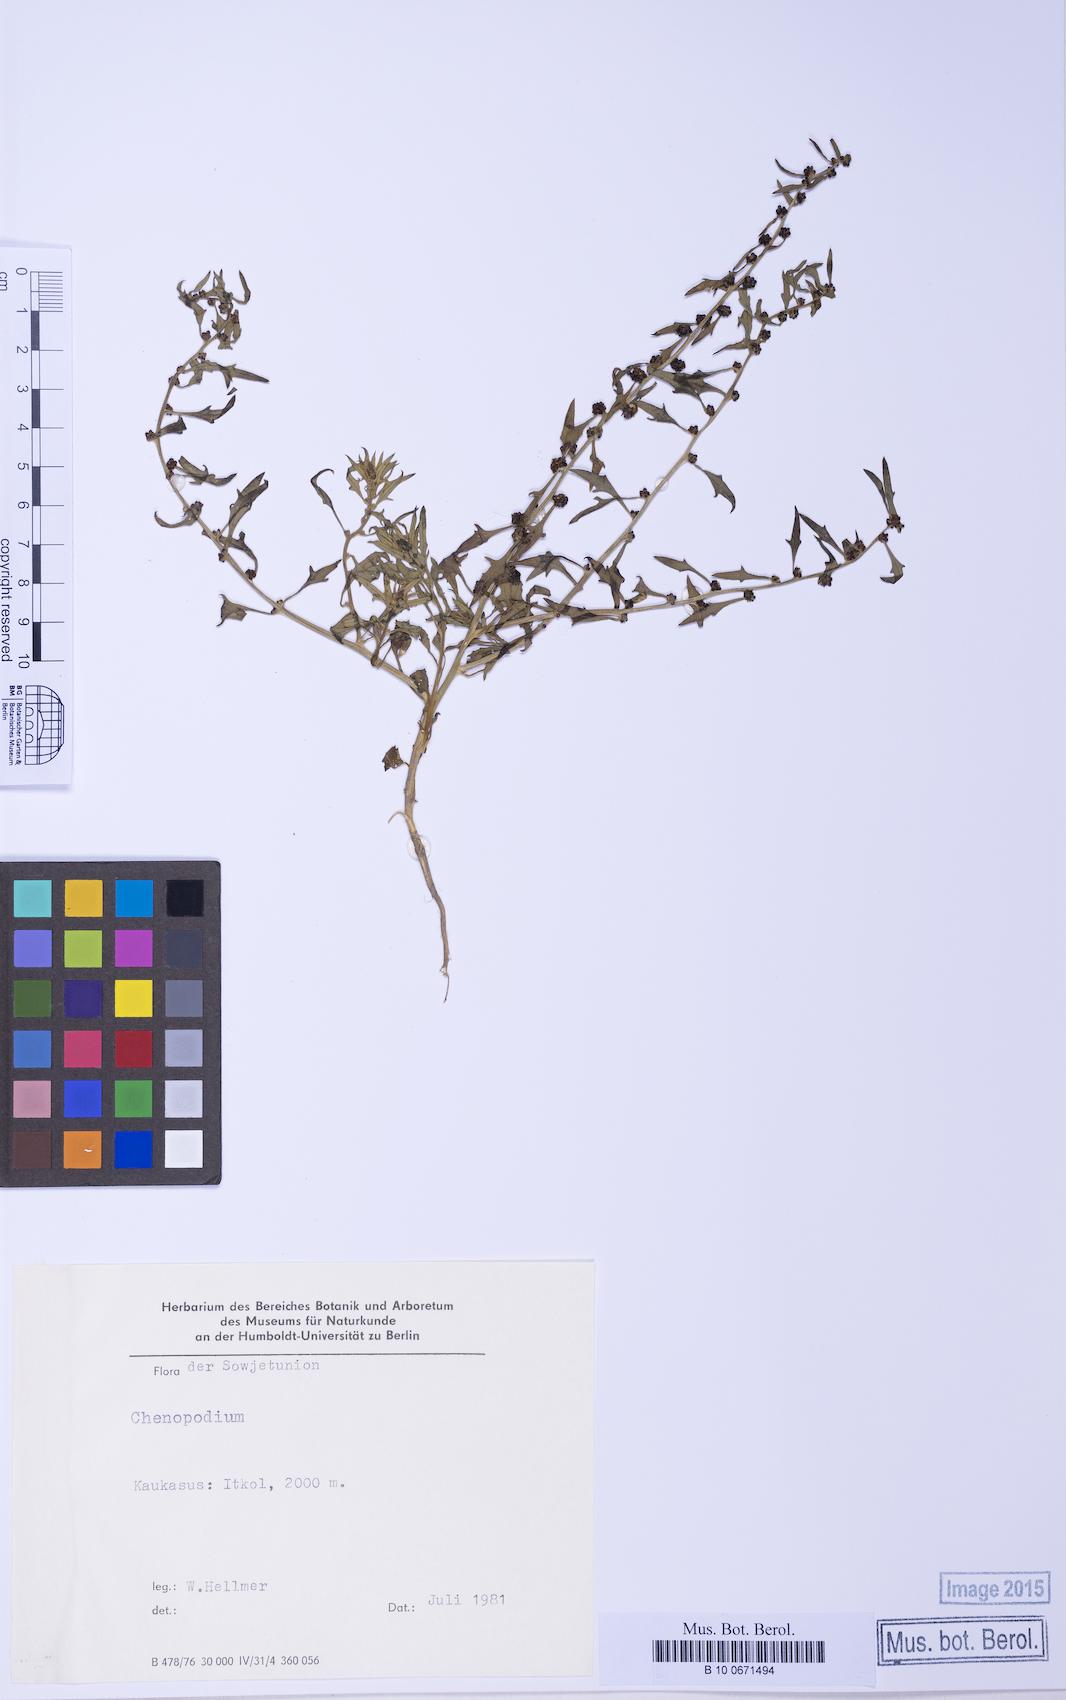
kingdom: Plantae
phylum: Tracheophyta
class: Magnoliopsida
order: Caryophyllales
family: Amaranthaceae
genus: Blitum
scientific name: Blitum virgatum
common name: Strawberry goosefoot
